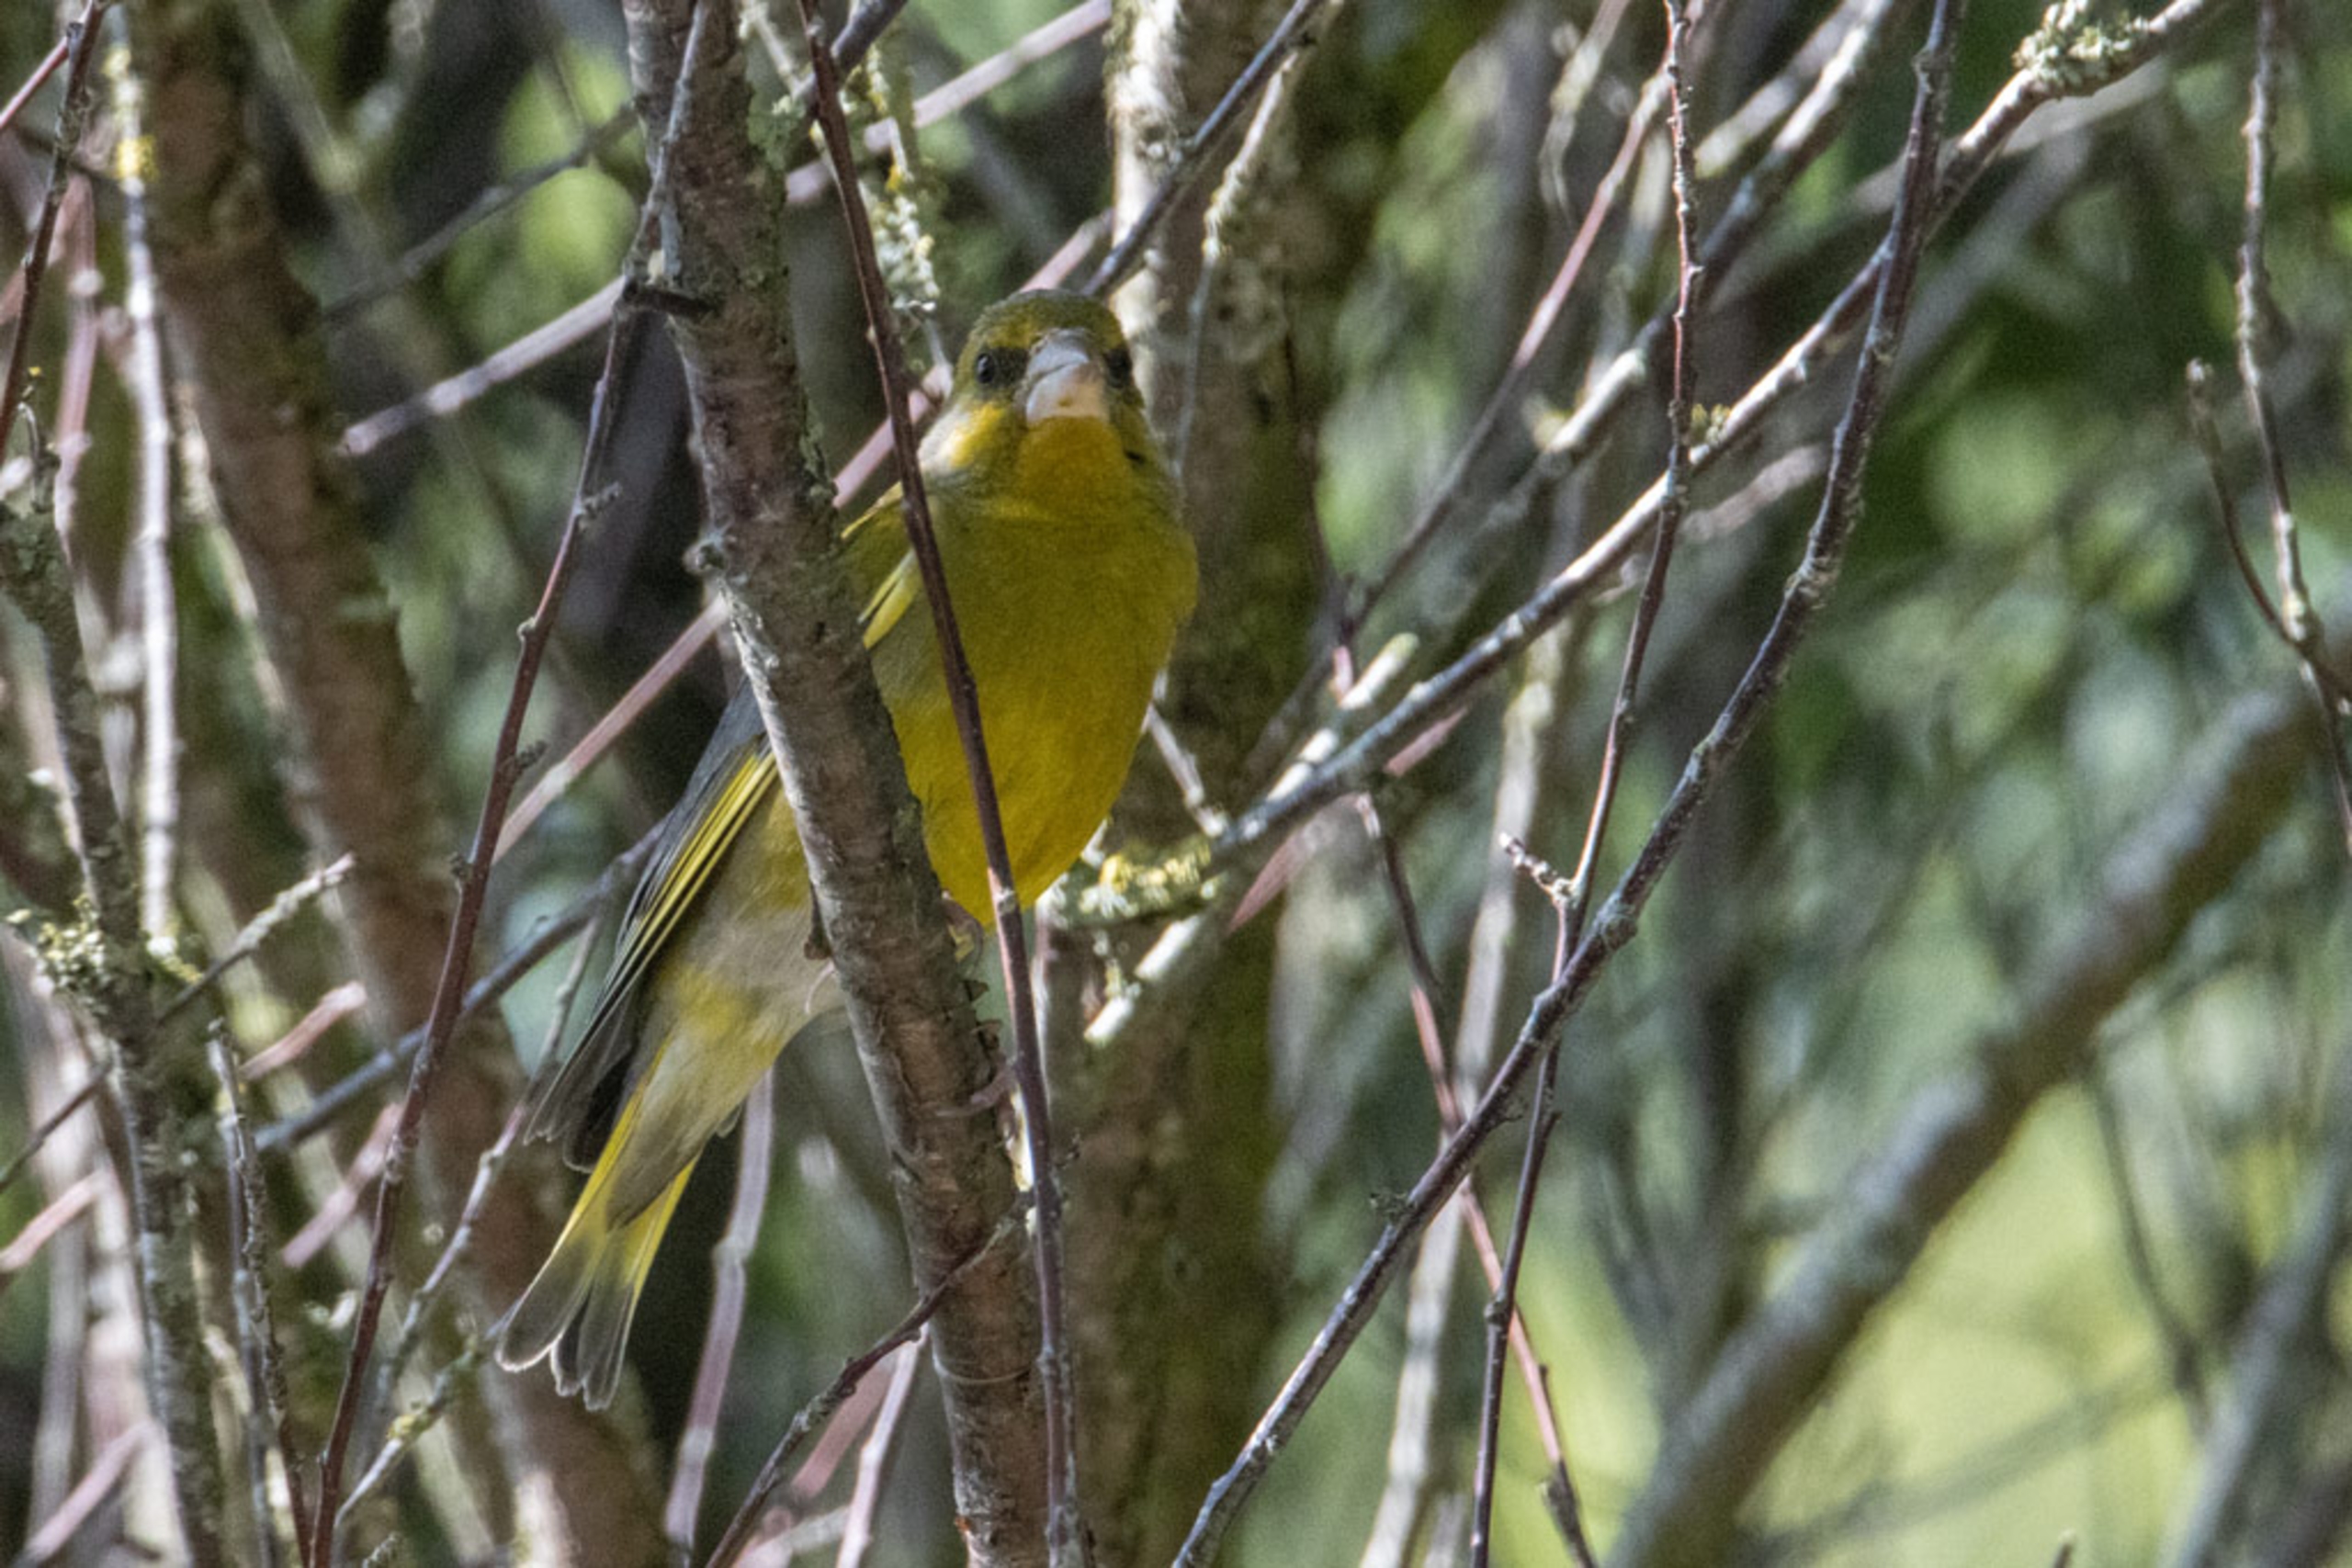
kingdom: Plantae
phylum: Tracheophyta
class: Liliopsida
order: Poales
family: Poaceae
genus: Chloris
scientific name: Chloris chloris
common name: Grønirisk
